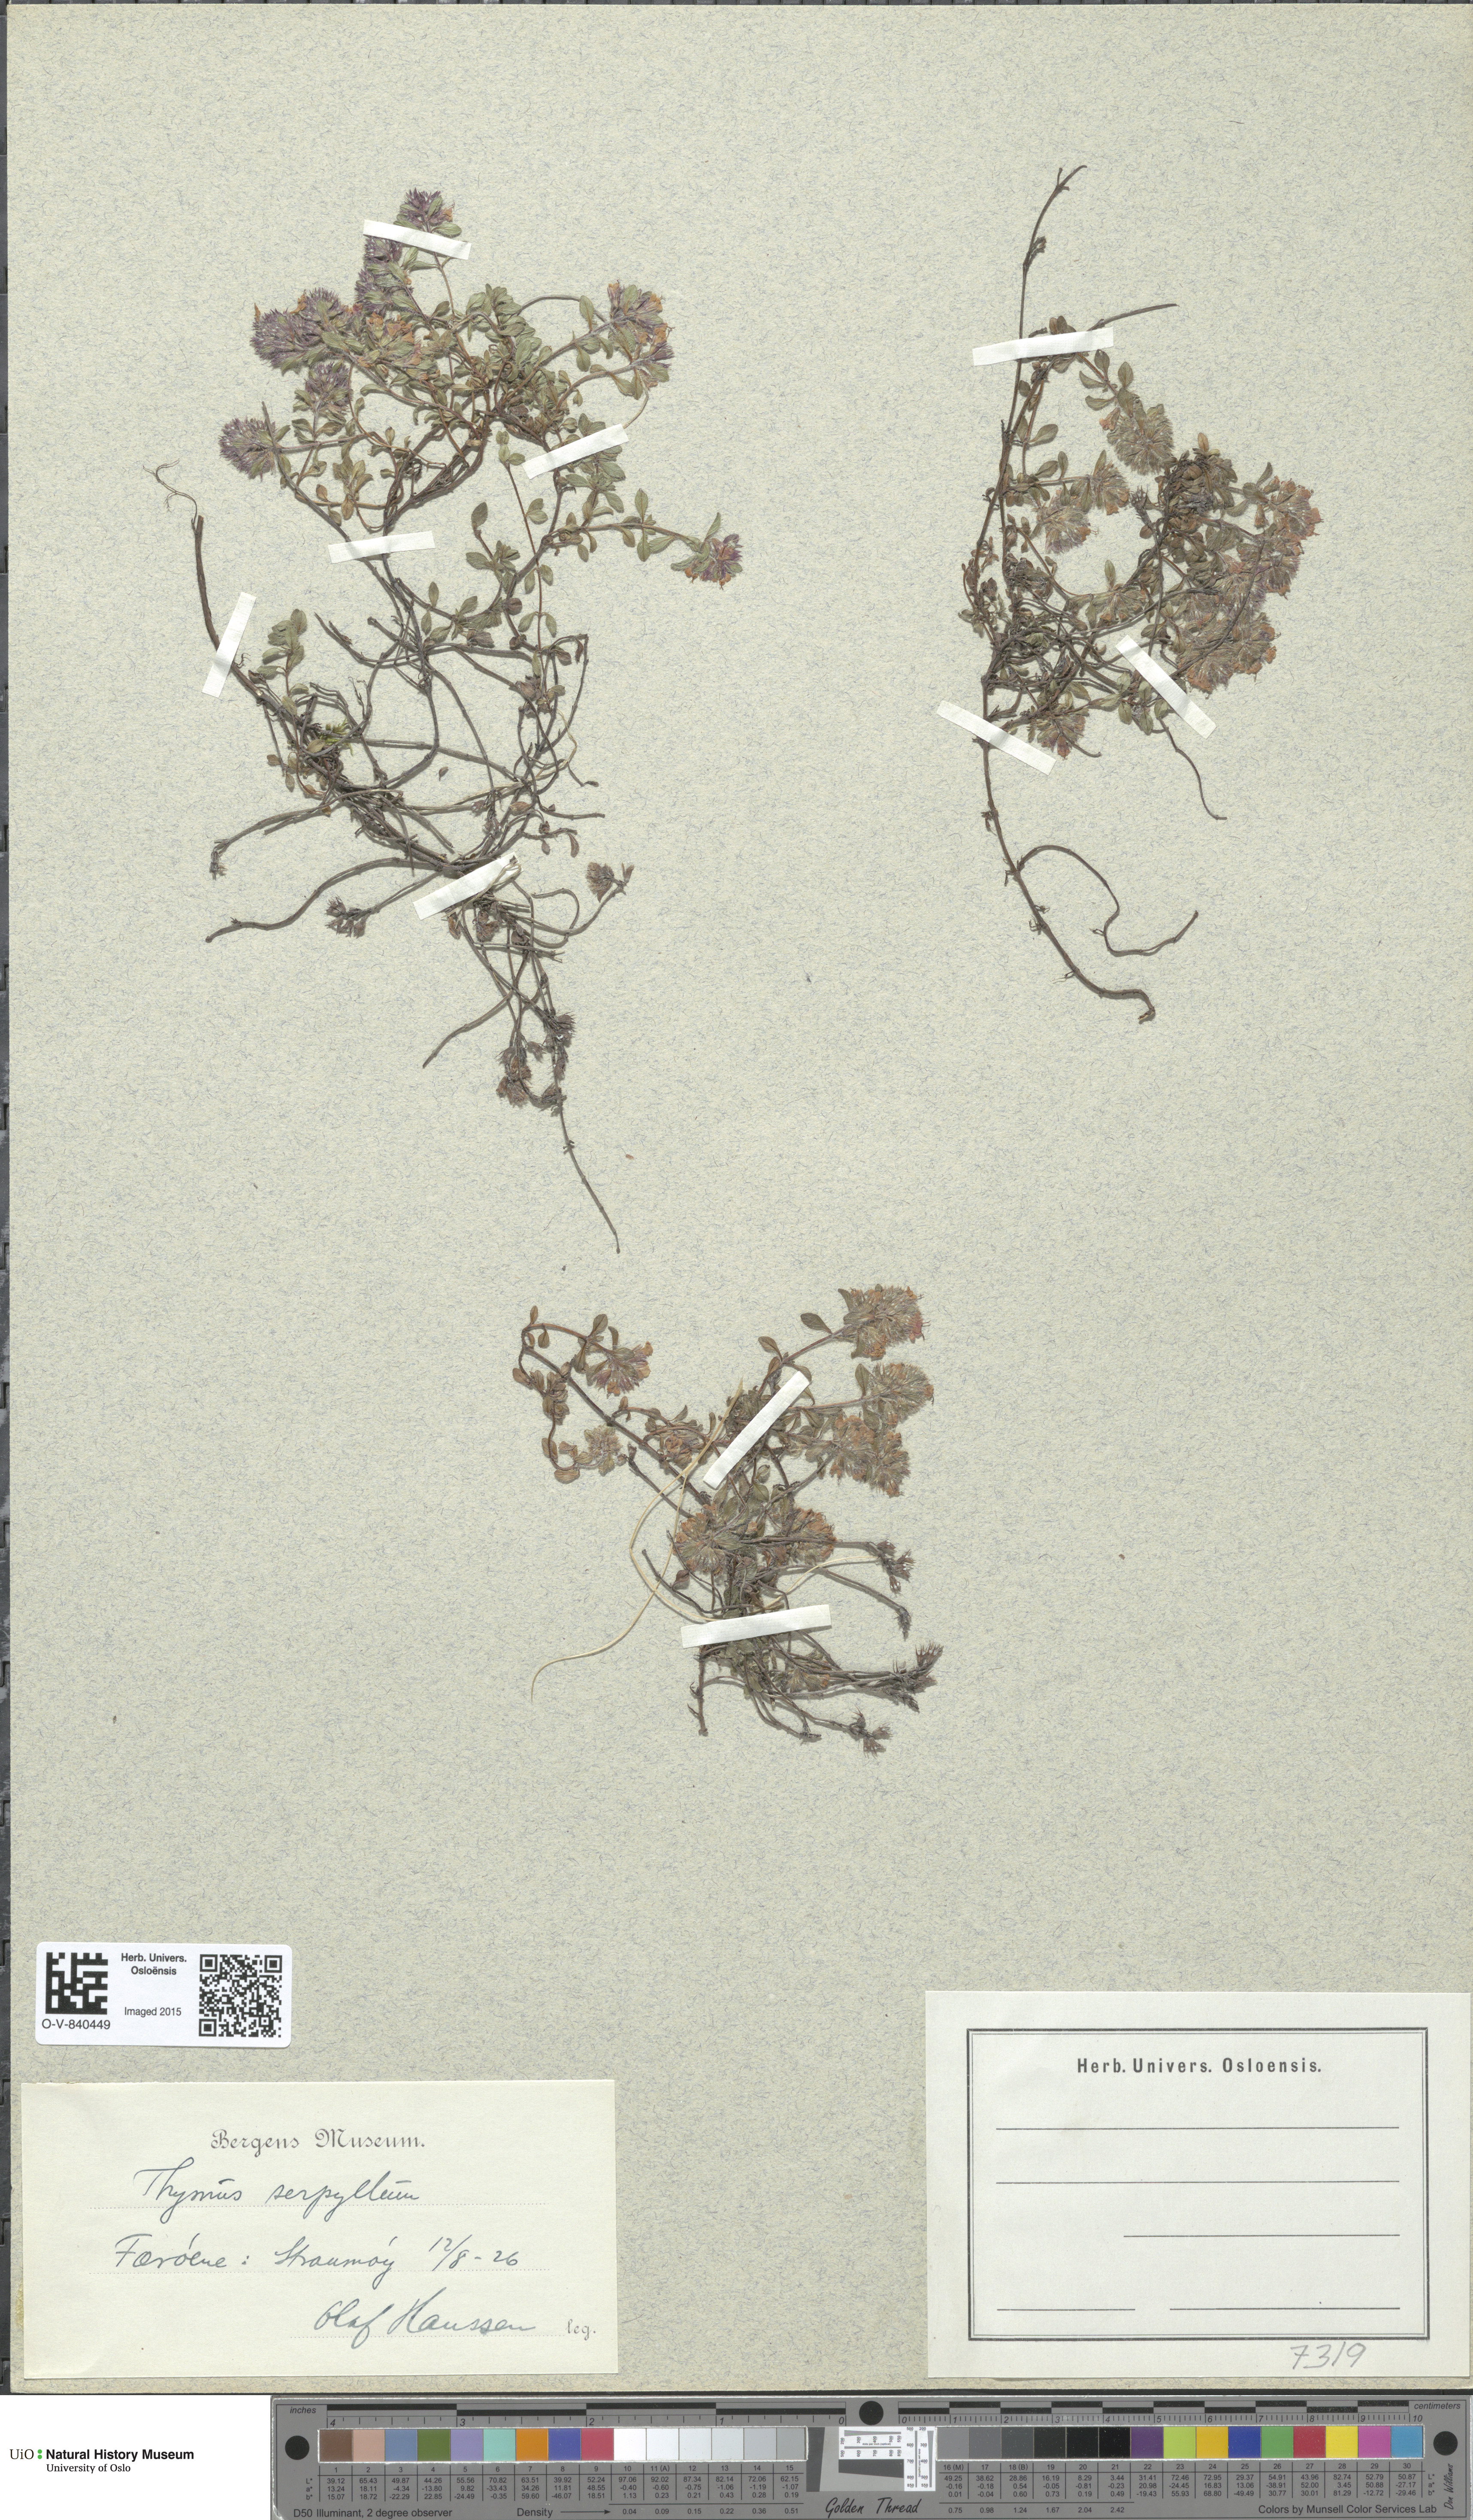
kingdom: Plantae
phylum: Tracheophyta
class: Magnoliopsida
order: Lamiales
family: Lamiaceae
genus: Thymus
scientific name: Thymus serpyllum
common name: Breckland thyme
